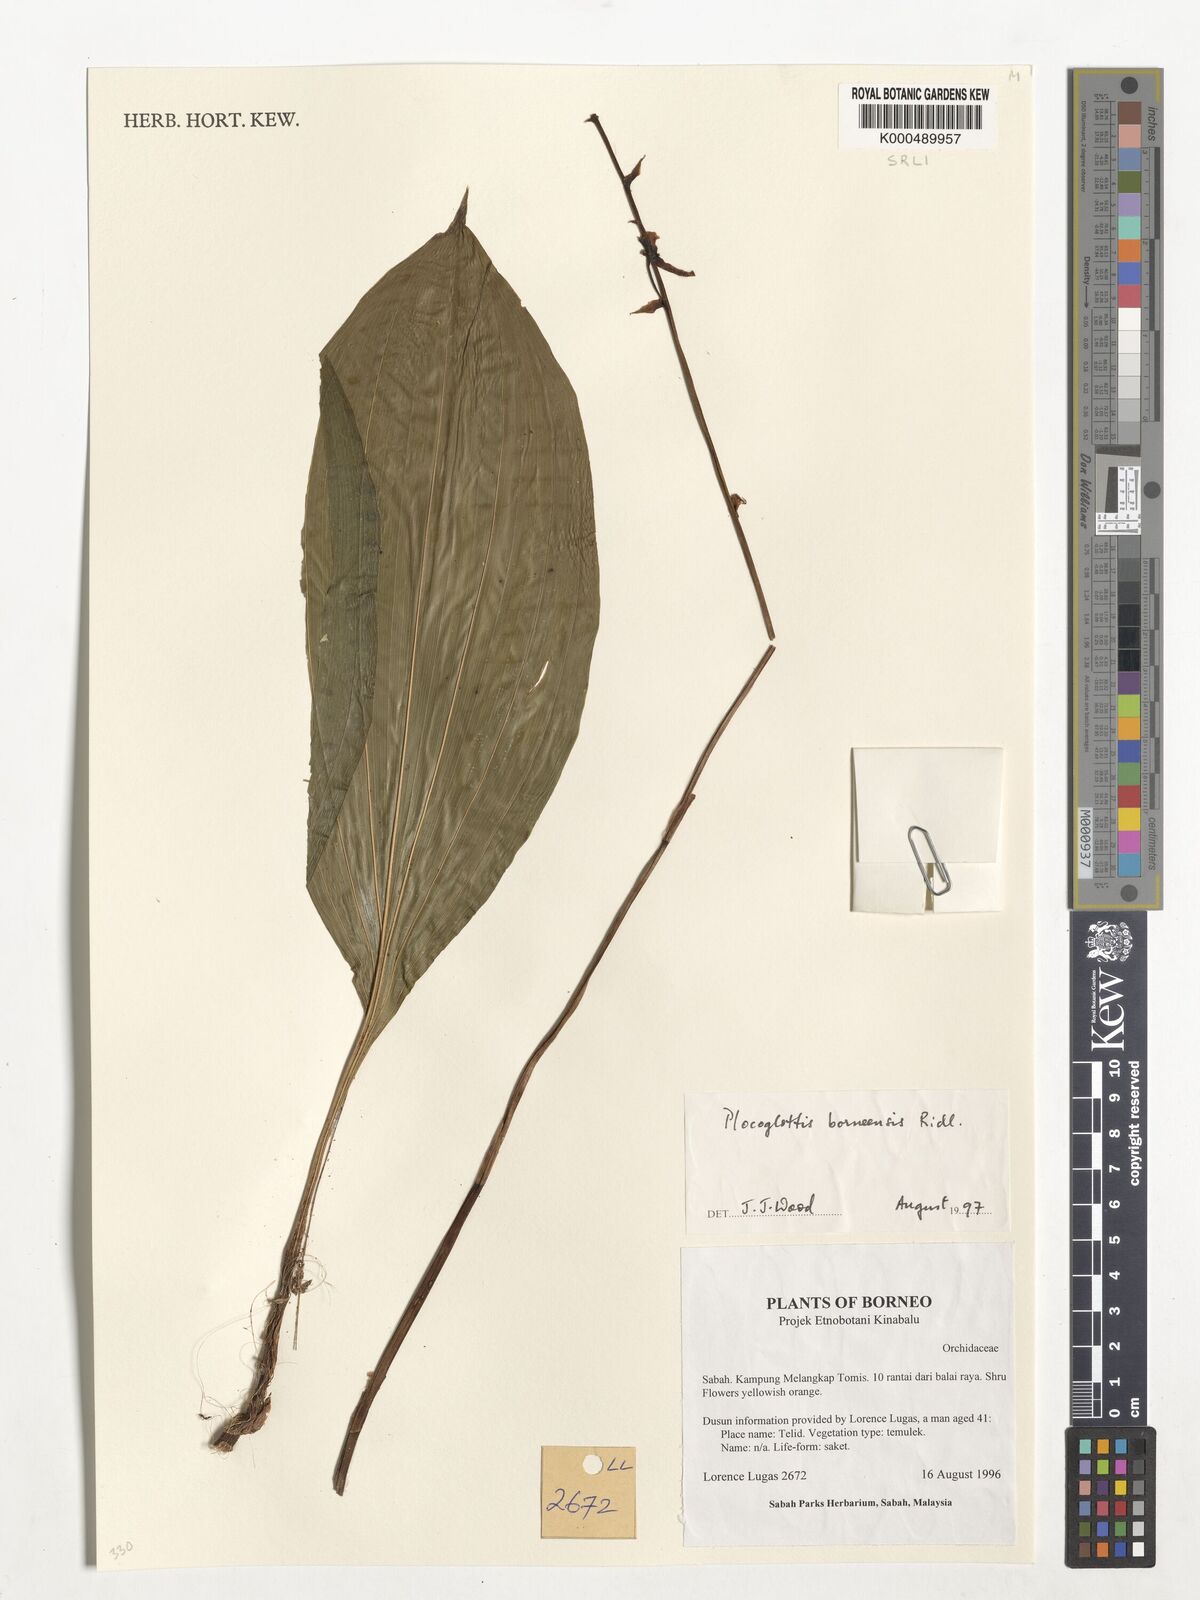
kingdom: Plantae
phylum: Tracheophyta
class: Liliopsida
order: Asparagales
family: Orchidaceae
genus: Plocoglottis
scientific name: Plocoglottis borneensis
